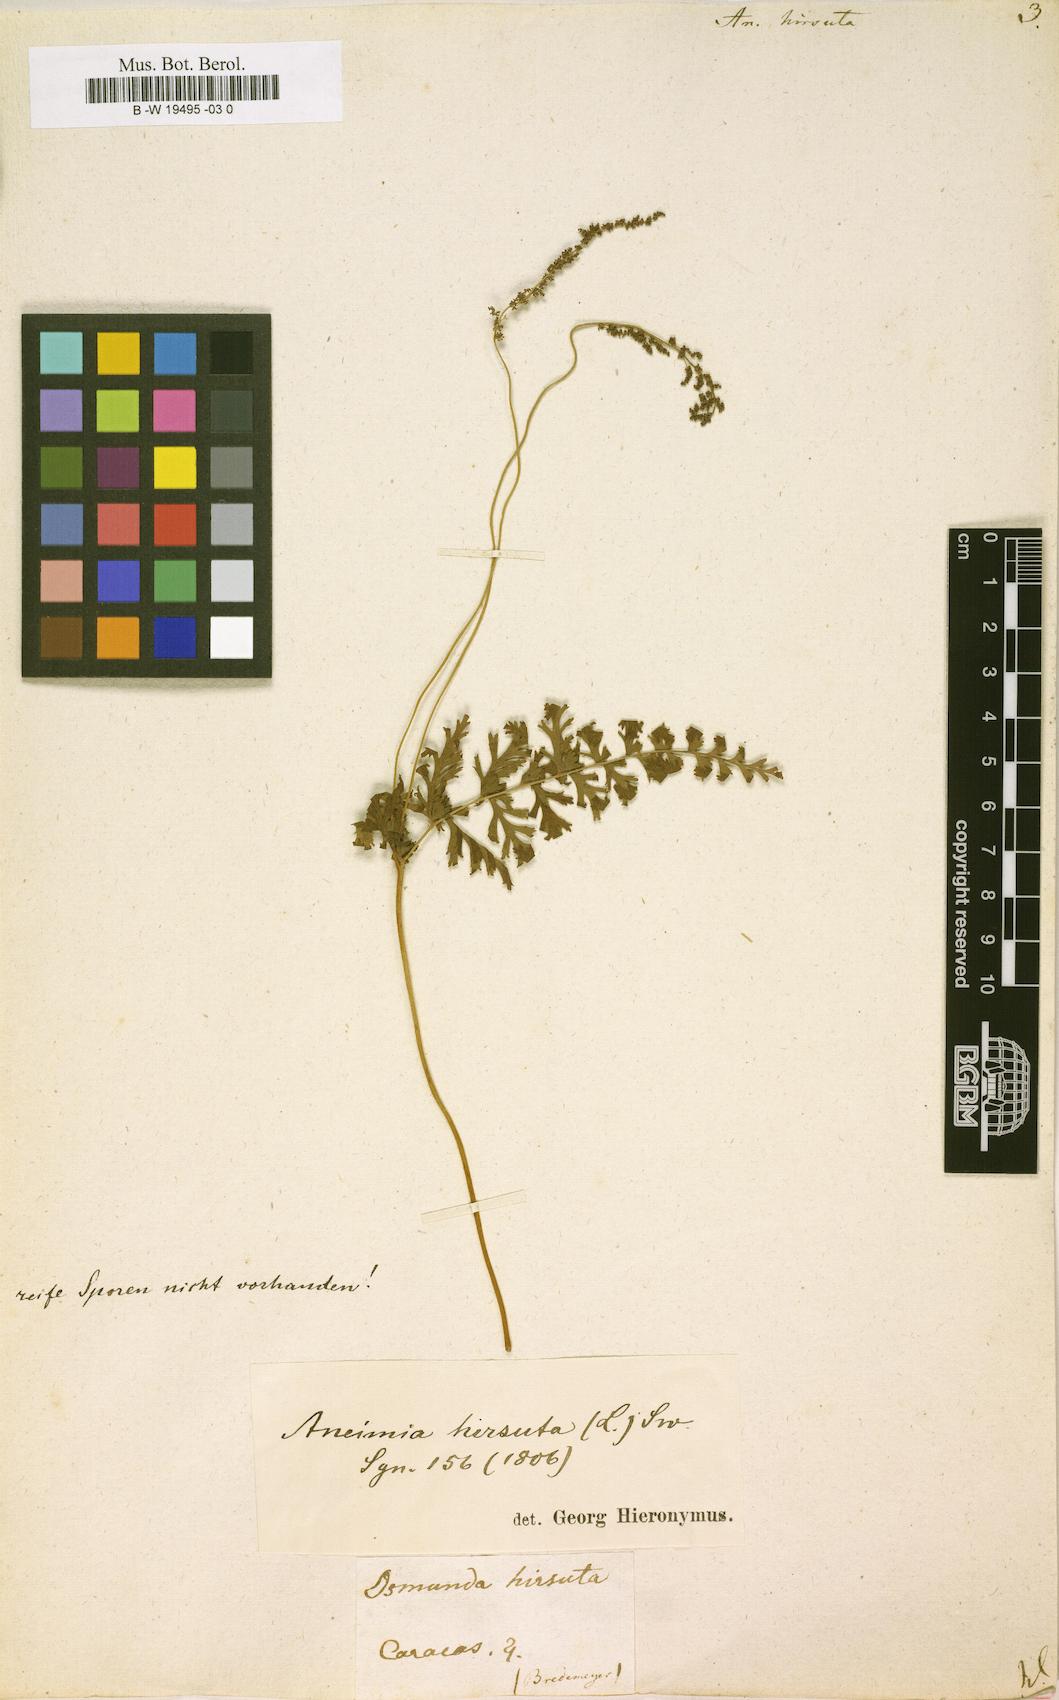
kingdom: Plantae
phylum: Tracheophyta
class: Polypodiopsida
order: Schizaeales
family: Anemiaceae
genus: Anemia
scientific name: Anemia hirsuta
